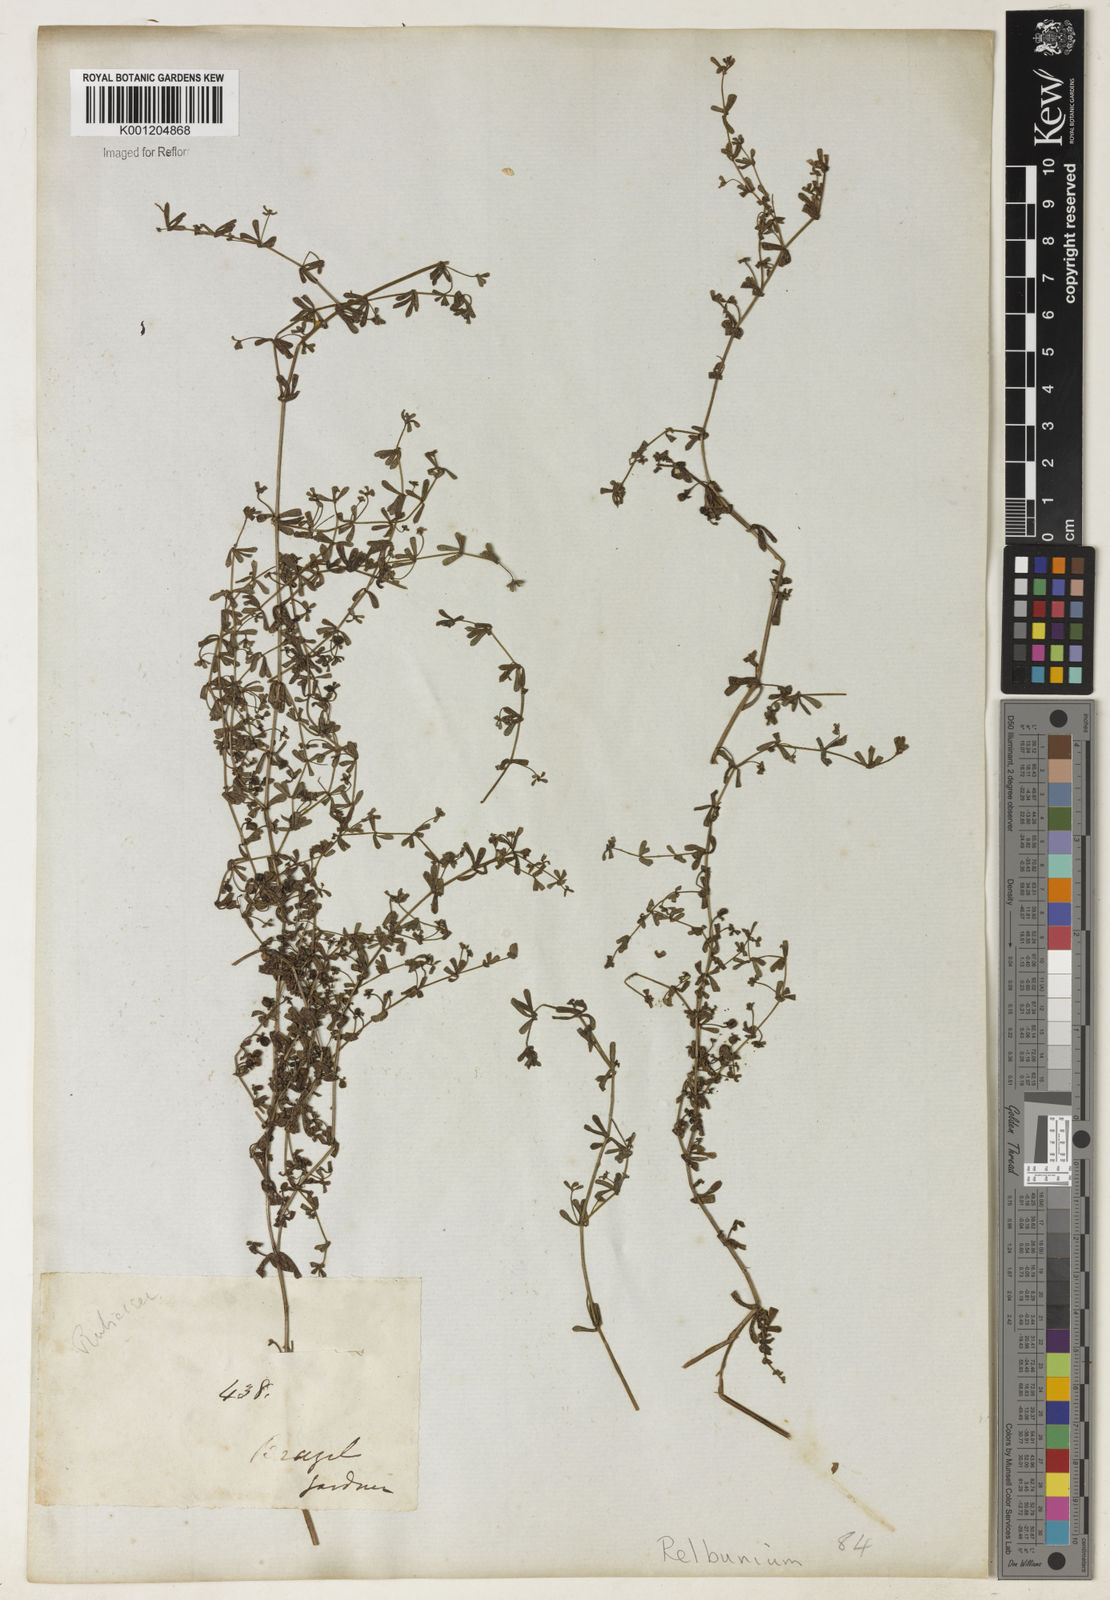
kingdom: Plantae
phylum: Tracheophyta
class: Magnoliopsida
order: Gentianales
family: Rubiaceae
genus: Galium
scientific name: Galium
